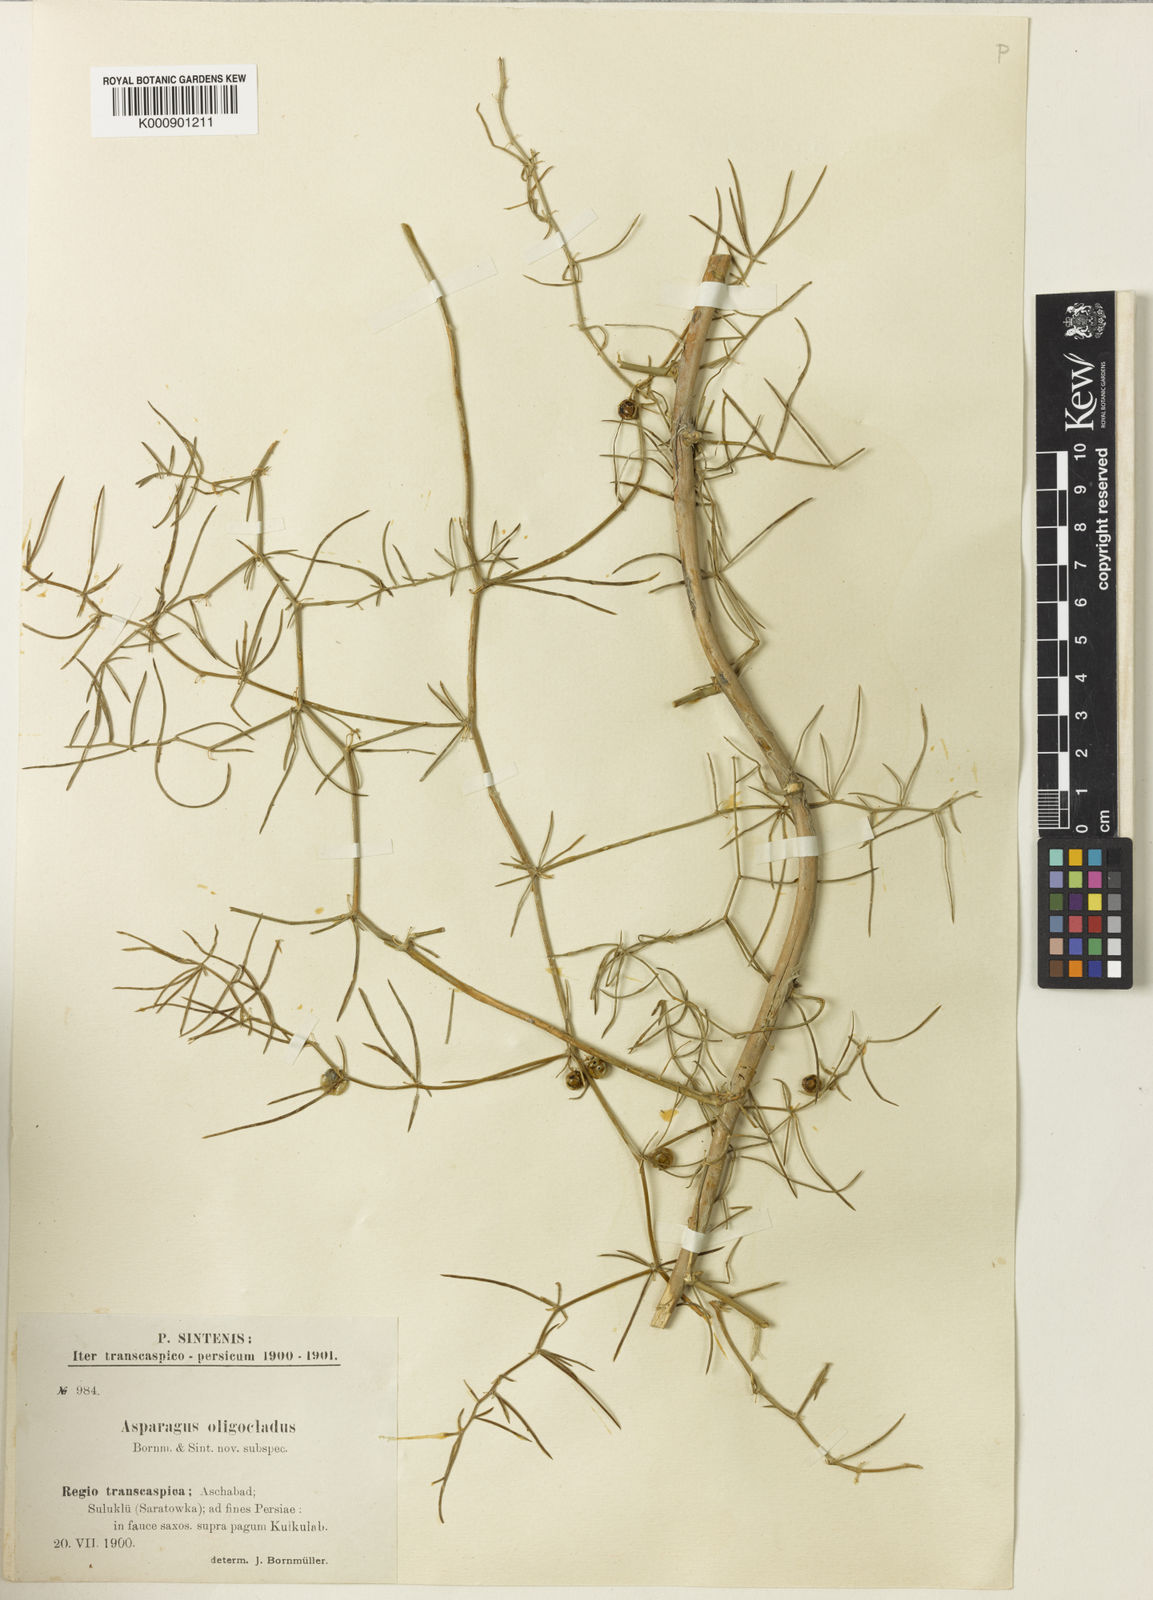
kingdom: Plantae
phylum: Tracheophyta
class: Liliopsida
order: Asparagales
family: Asparagaceae
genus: Asparagus
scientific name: Asparagus
